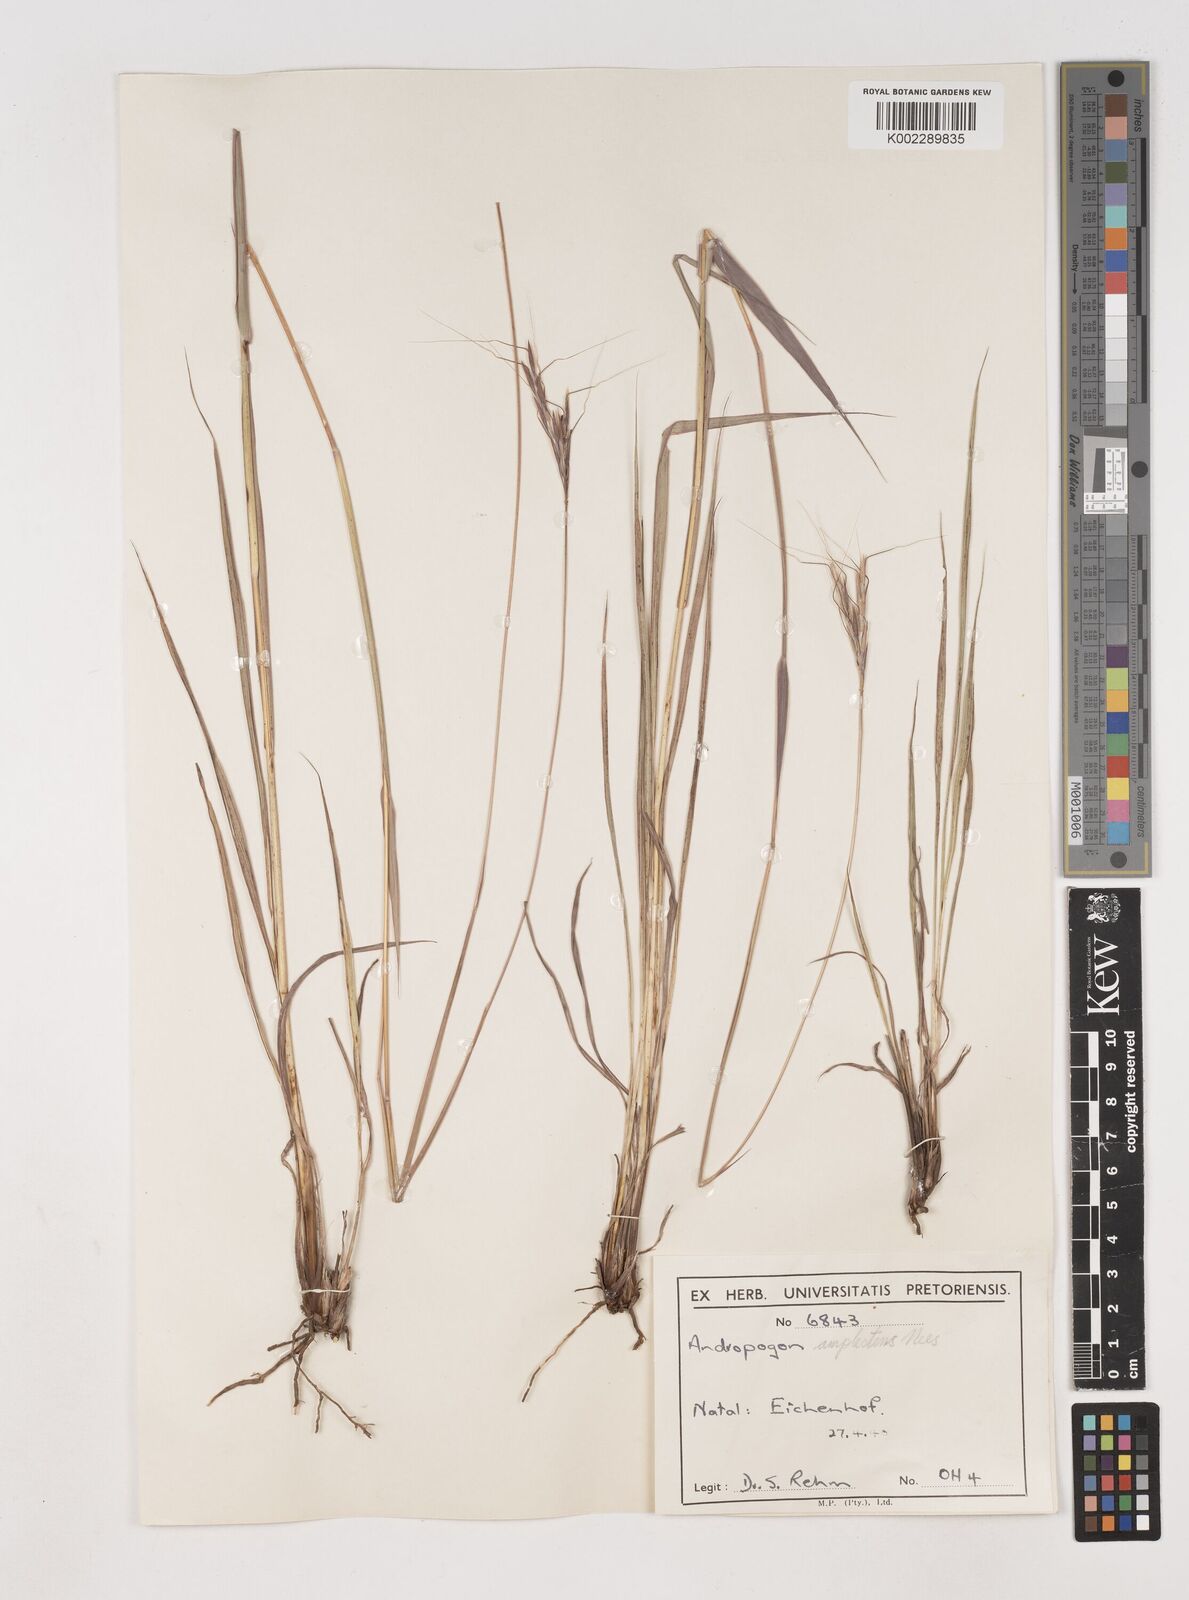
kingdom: Plantae
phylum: Tracheophyta
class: Liliopsida
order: Poales
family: Poaceae
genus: Diheteropogon
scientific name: Diheteropogon amplectens
